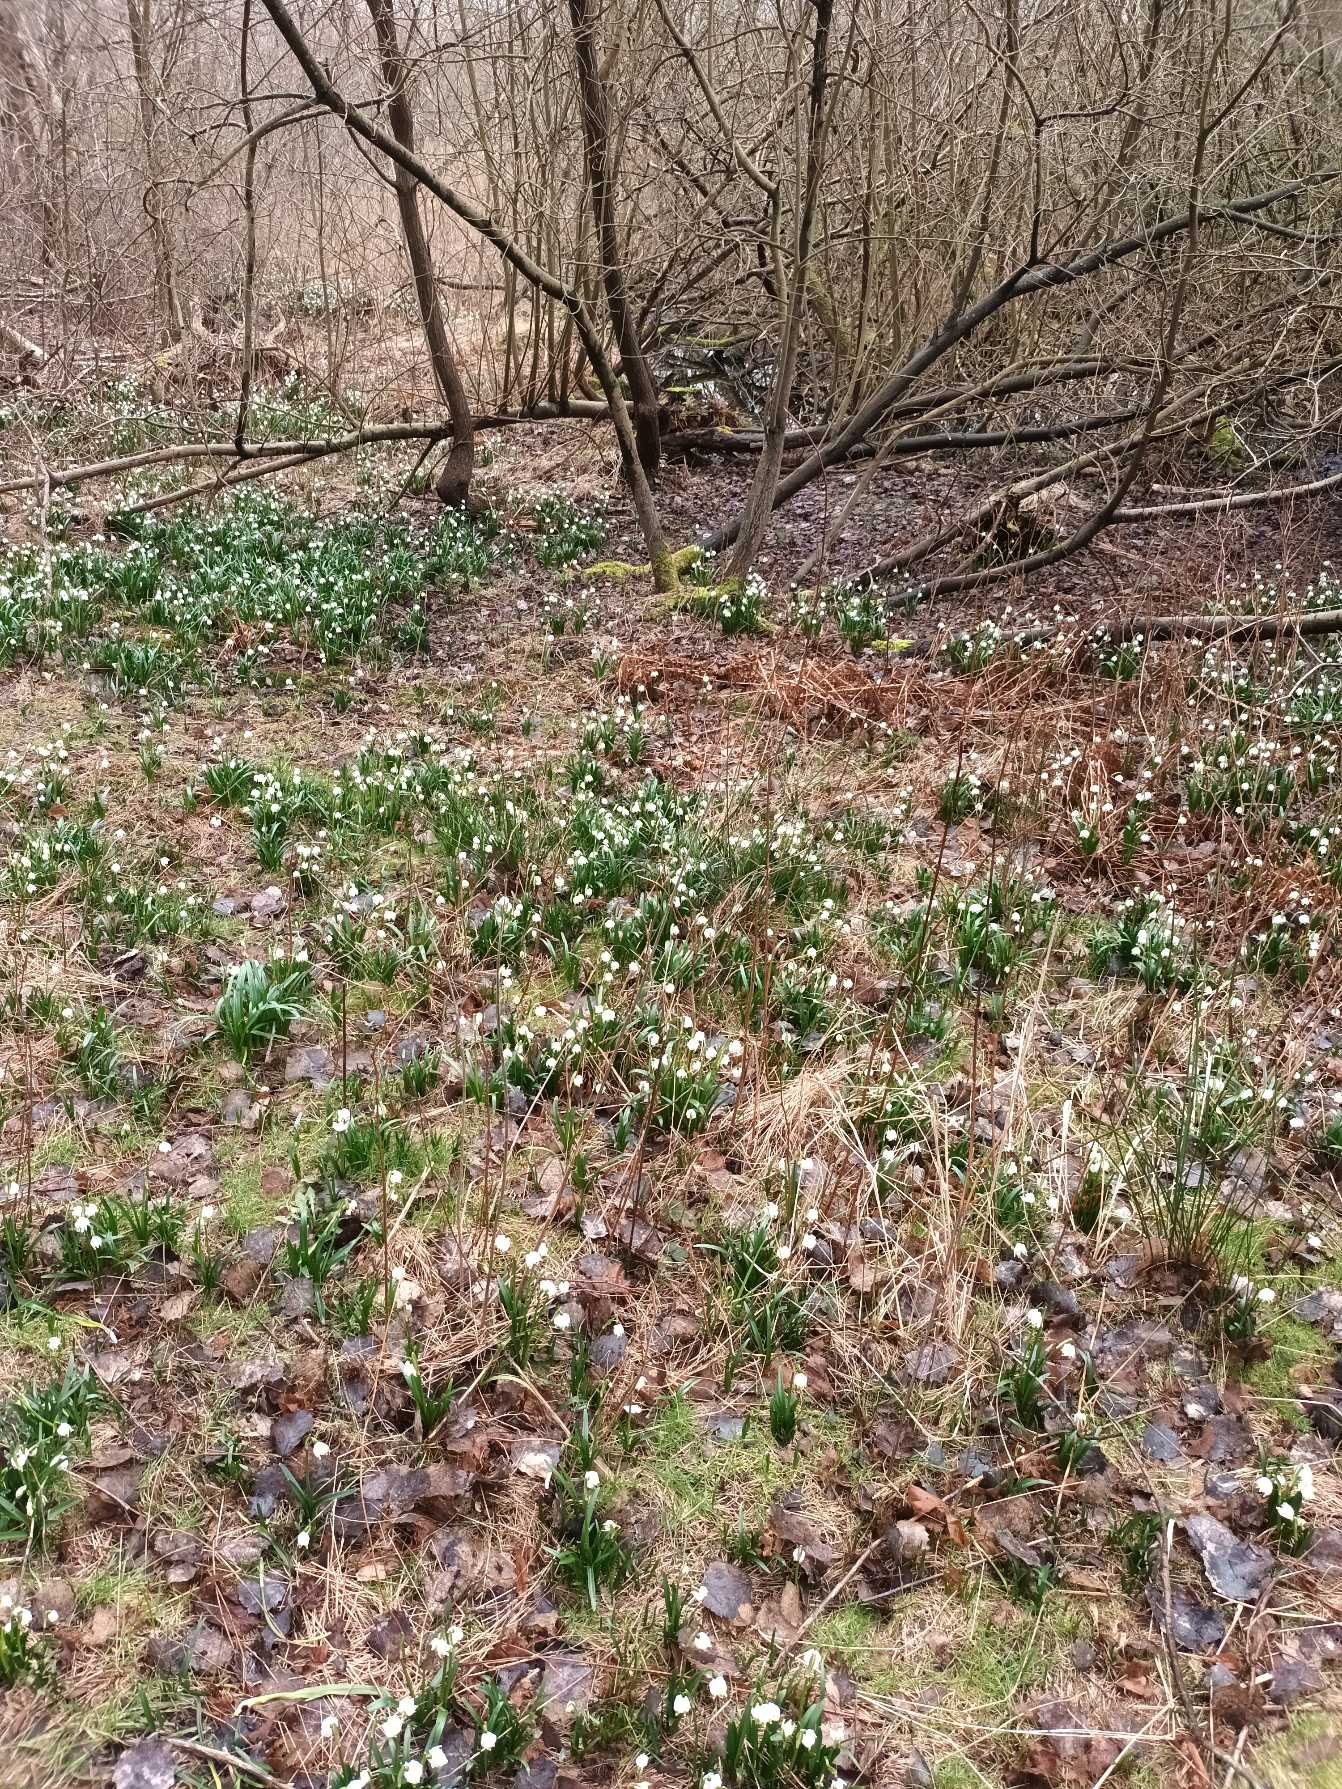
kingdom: Plantae
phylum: Tracheophyta
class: Liliopsida
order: Asparagales
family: Amaryllidaceae
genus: Leucojum
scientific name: Leucojum vernum
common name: Dorthealilje
